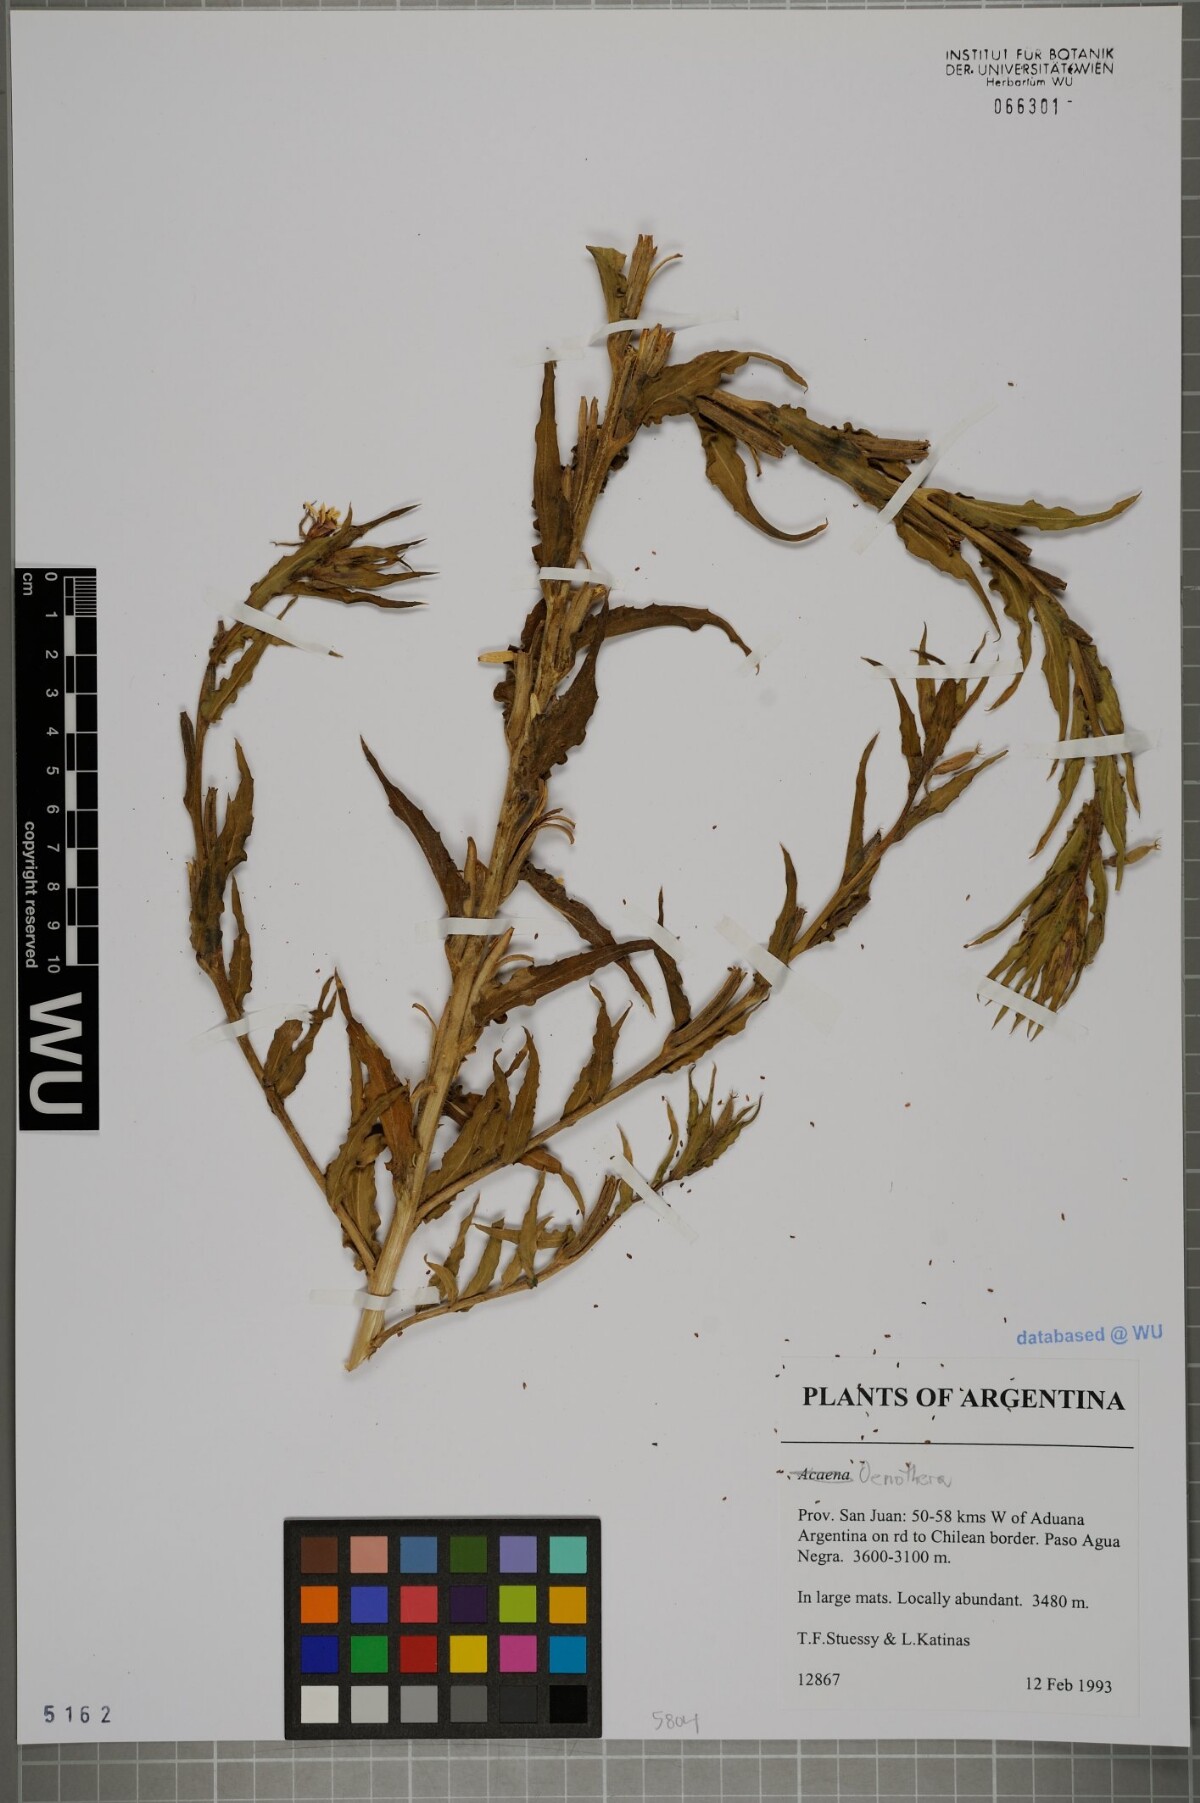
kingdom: Plantae
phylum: Tracheophyta
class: Magnoliopsida
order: Myrtales
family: Onagraceae
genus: Oenothera
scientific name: Oenothera
